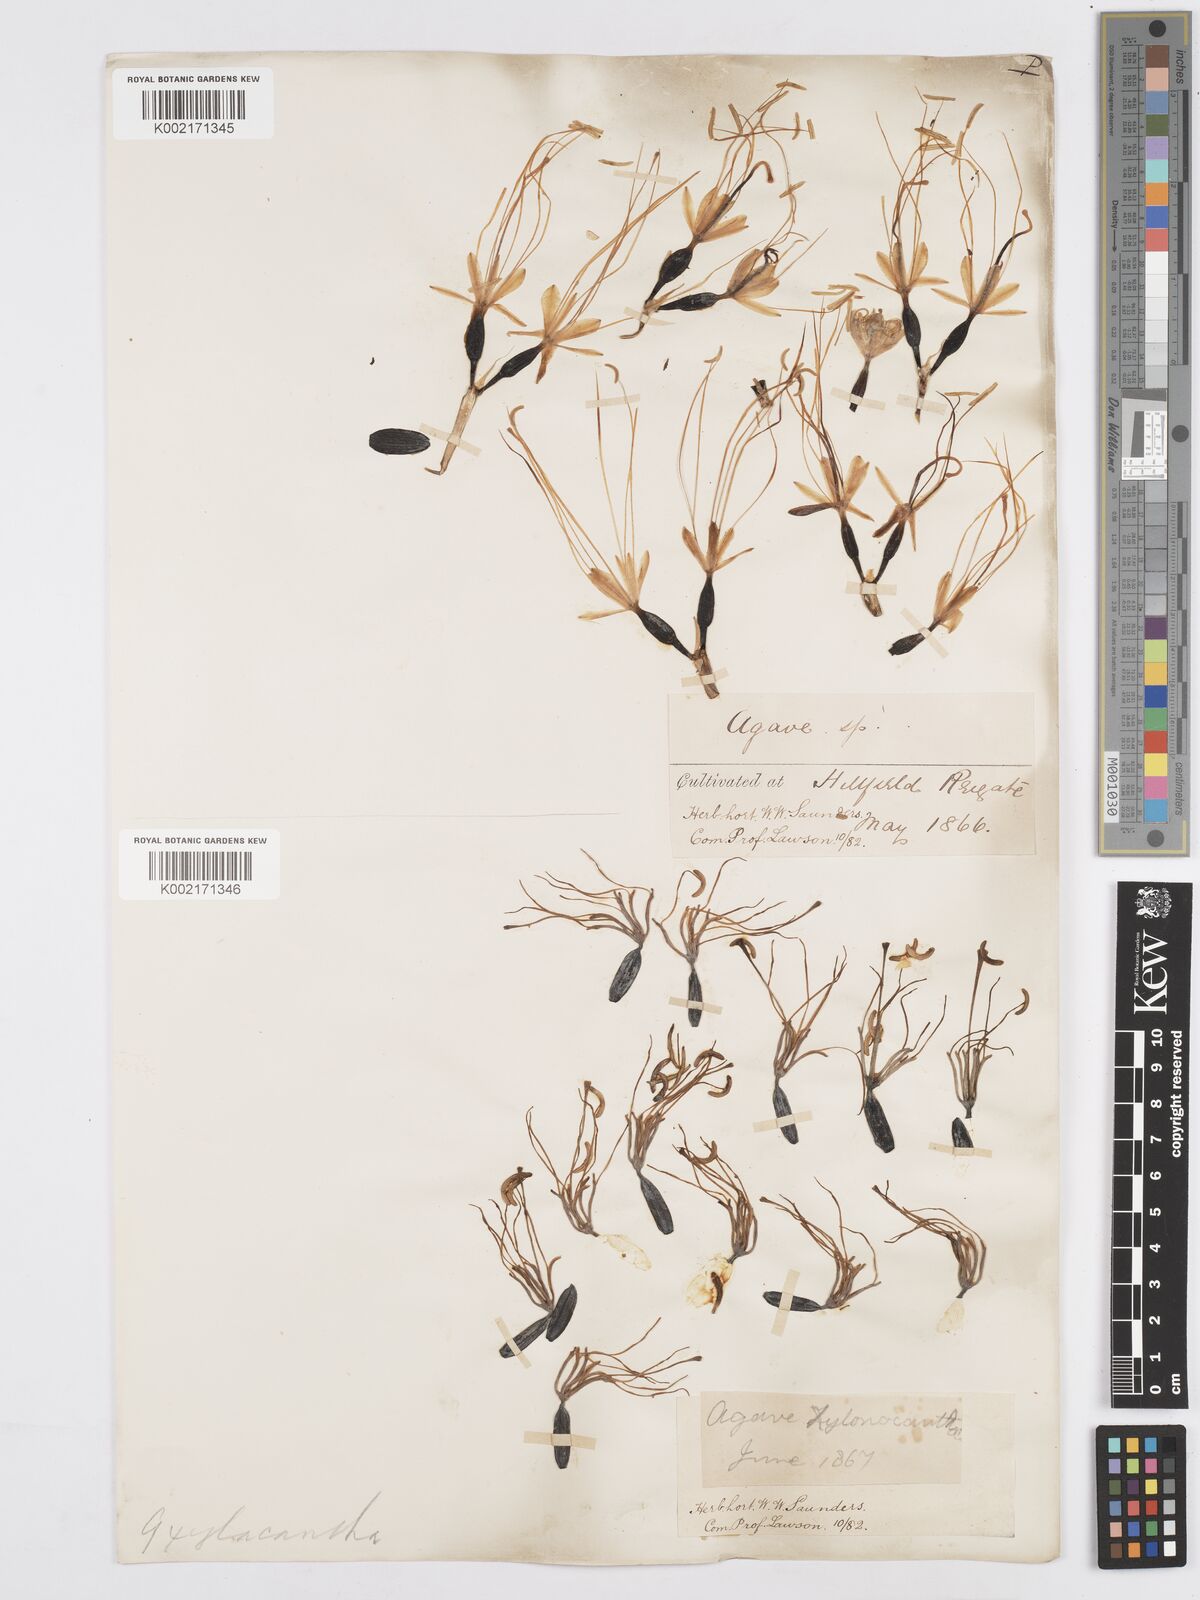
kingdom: Plantae
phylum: Tracheophyta
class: Liliopsida
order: Asparagales
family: Asparagaceae
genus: Agave
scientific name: Agave xylonacantha
